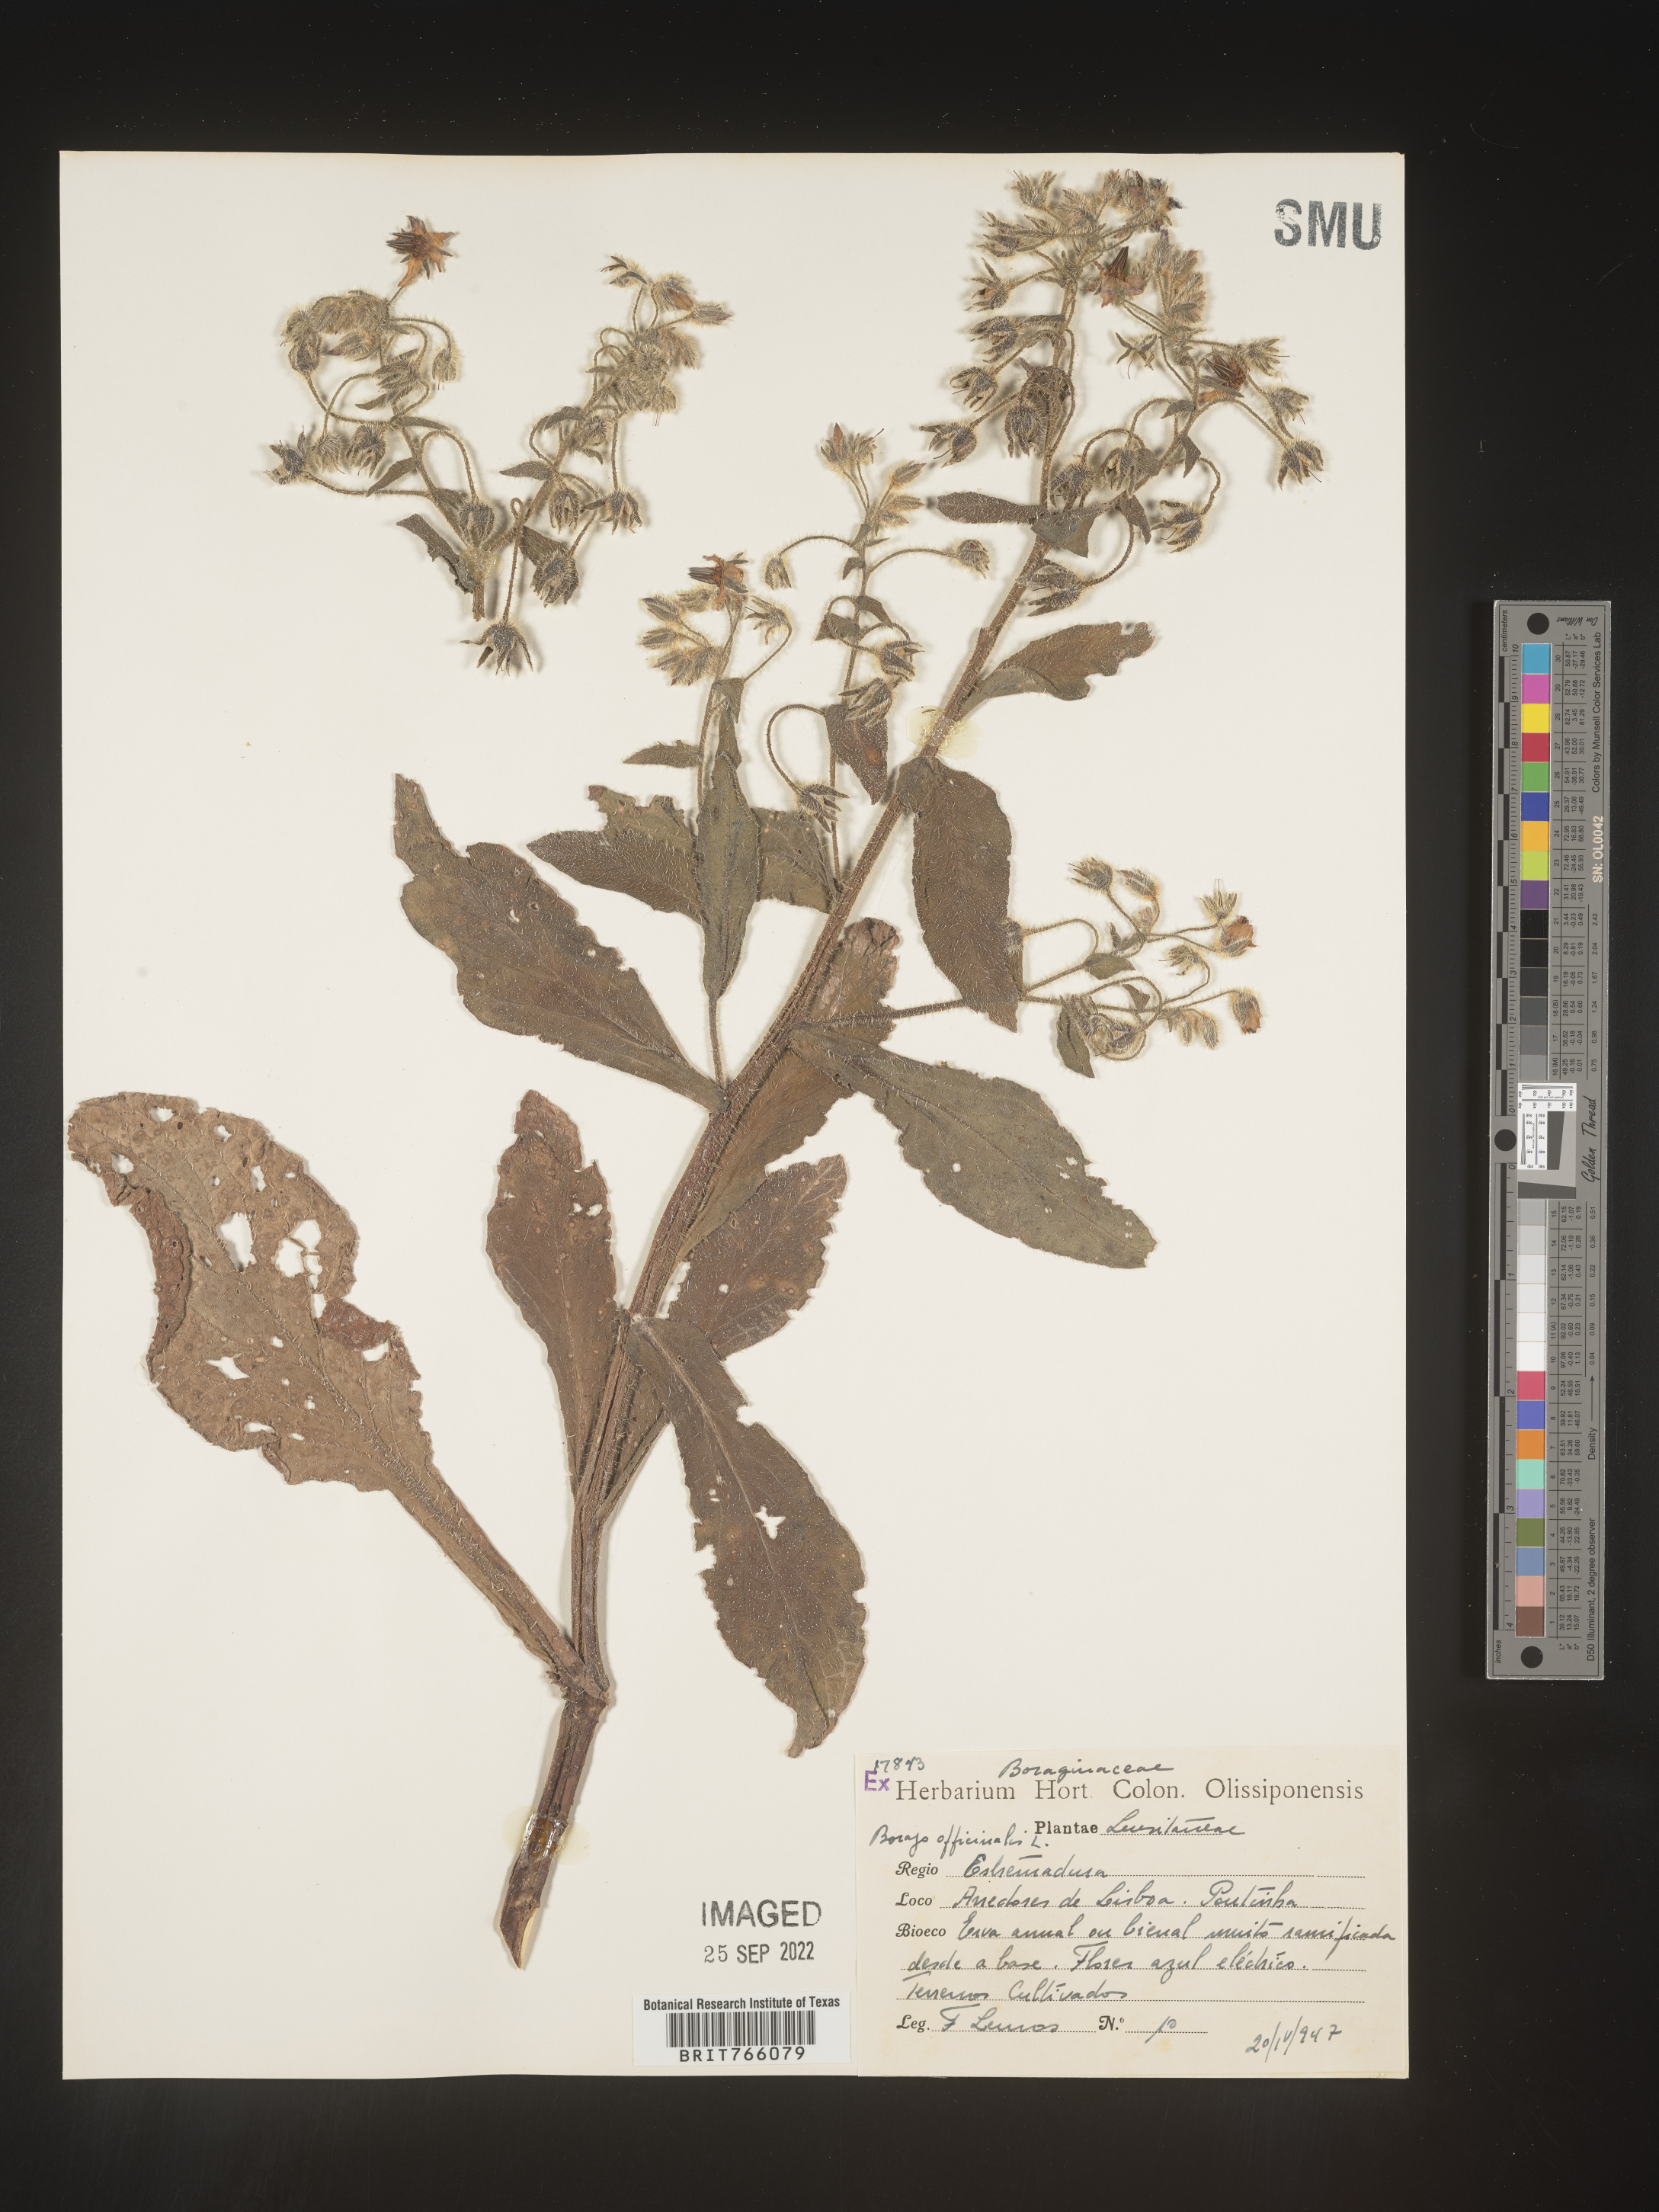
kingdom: Plantae
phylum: Tracheophyta
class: Magnoliopsida
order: Boraginales
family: Boraginaceae
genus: Borago
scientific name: Borago
